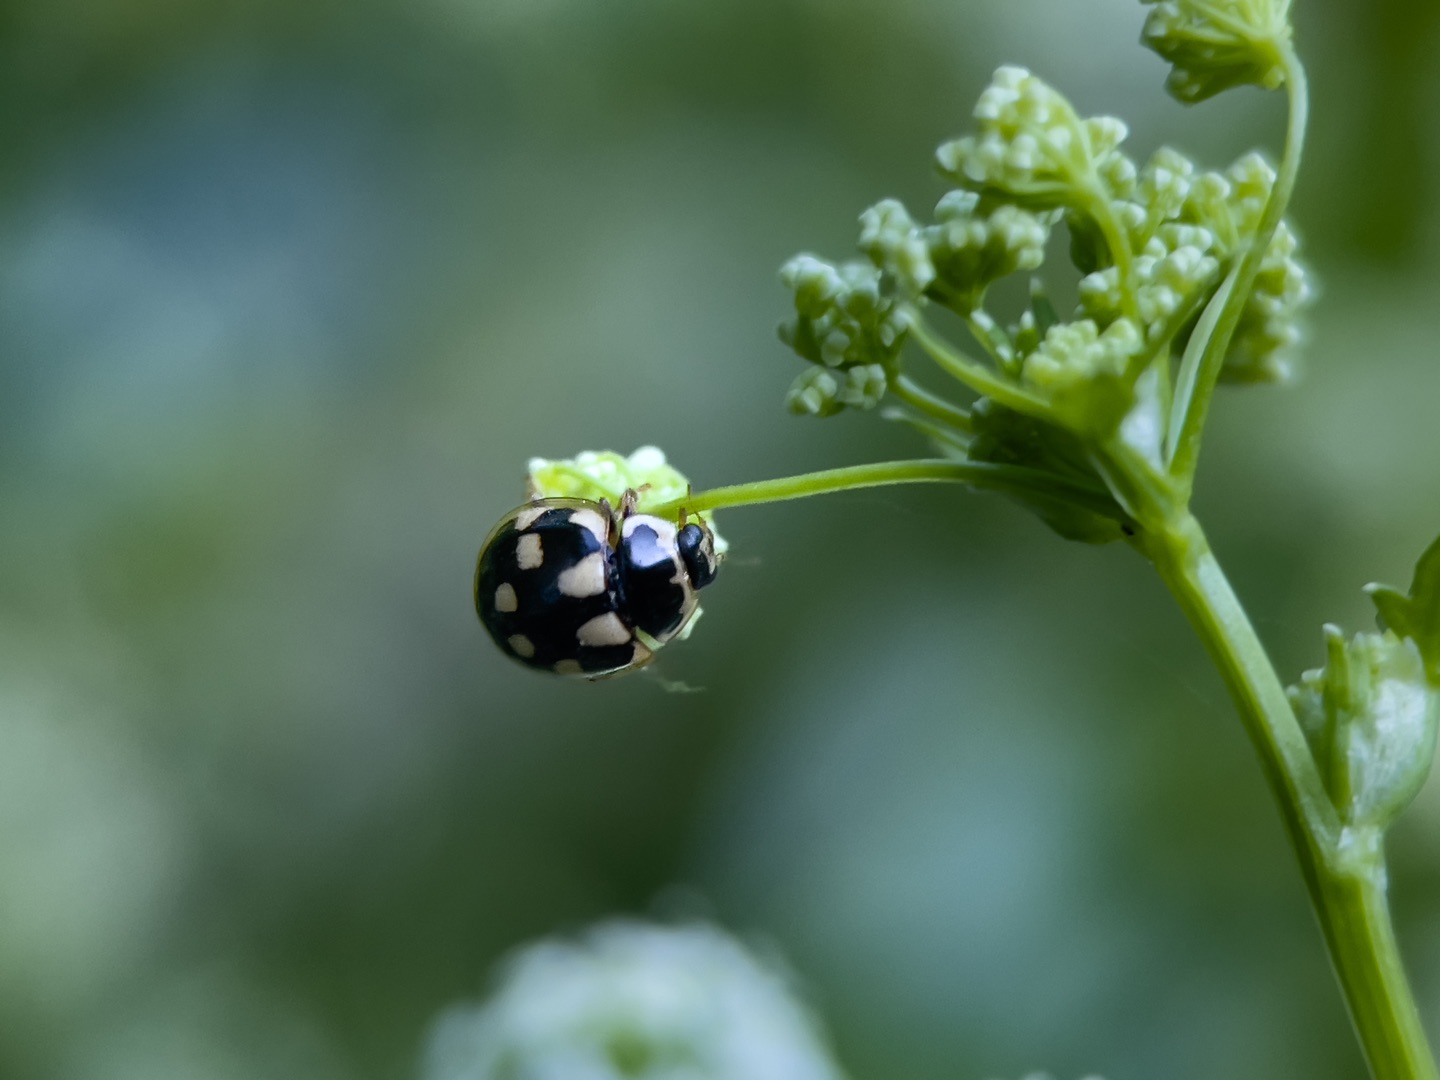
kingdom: Animalia
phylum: Arthropoda
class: Insecta
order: Coleoptera
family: Coccinellidae
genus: Propylaea
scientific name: Propylaea quatuordecimpunctata
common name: Skakbræt
